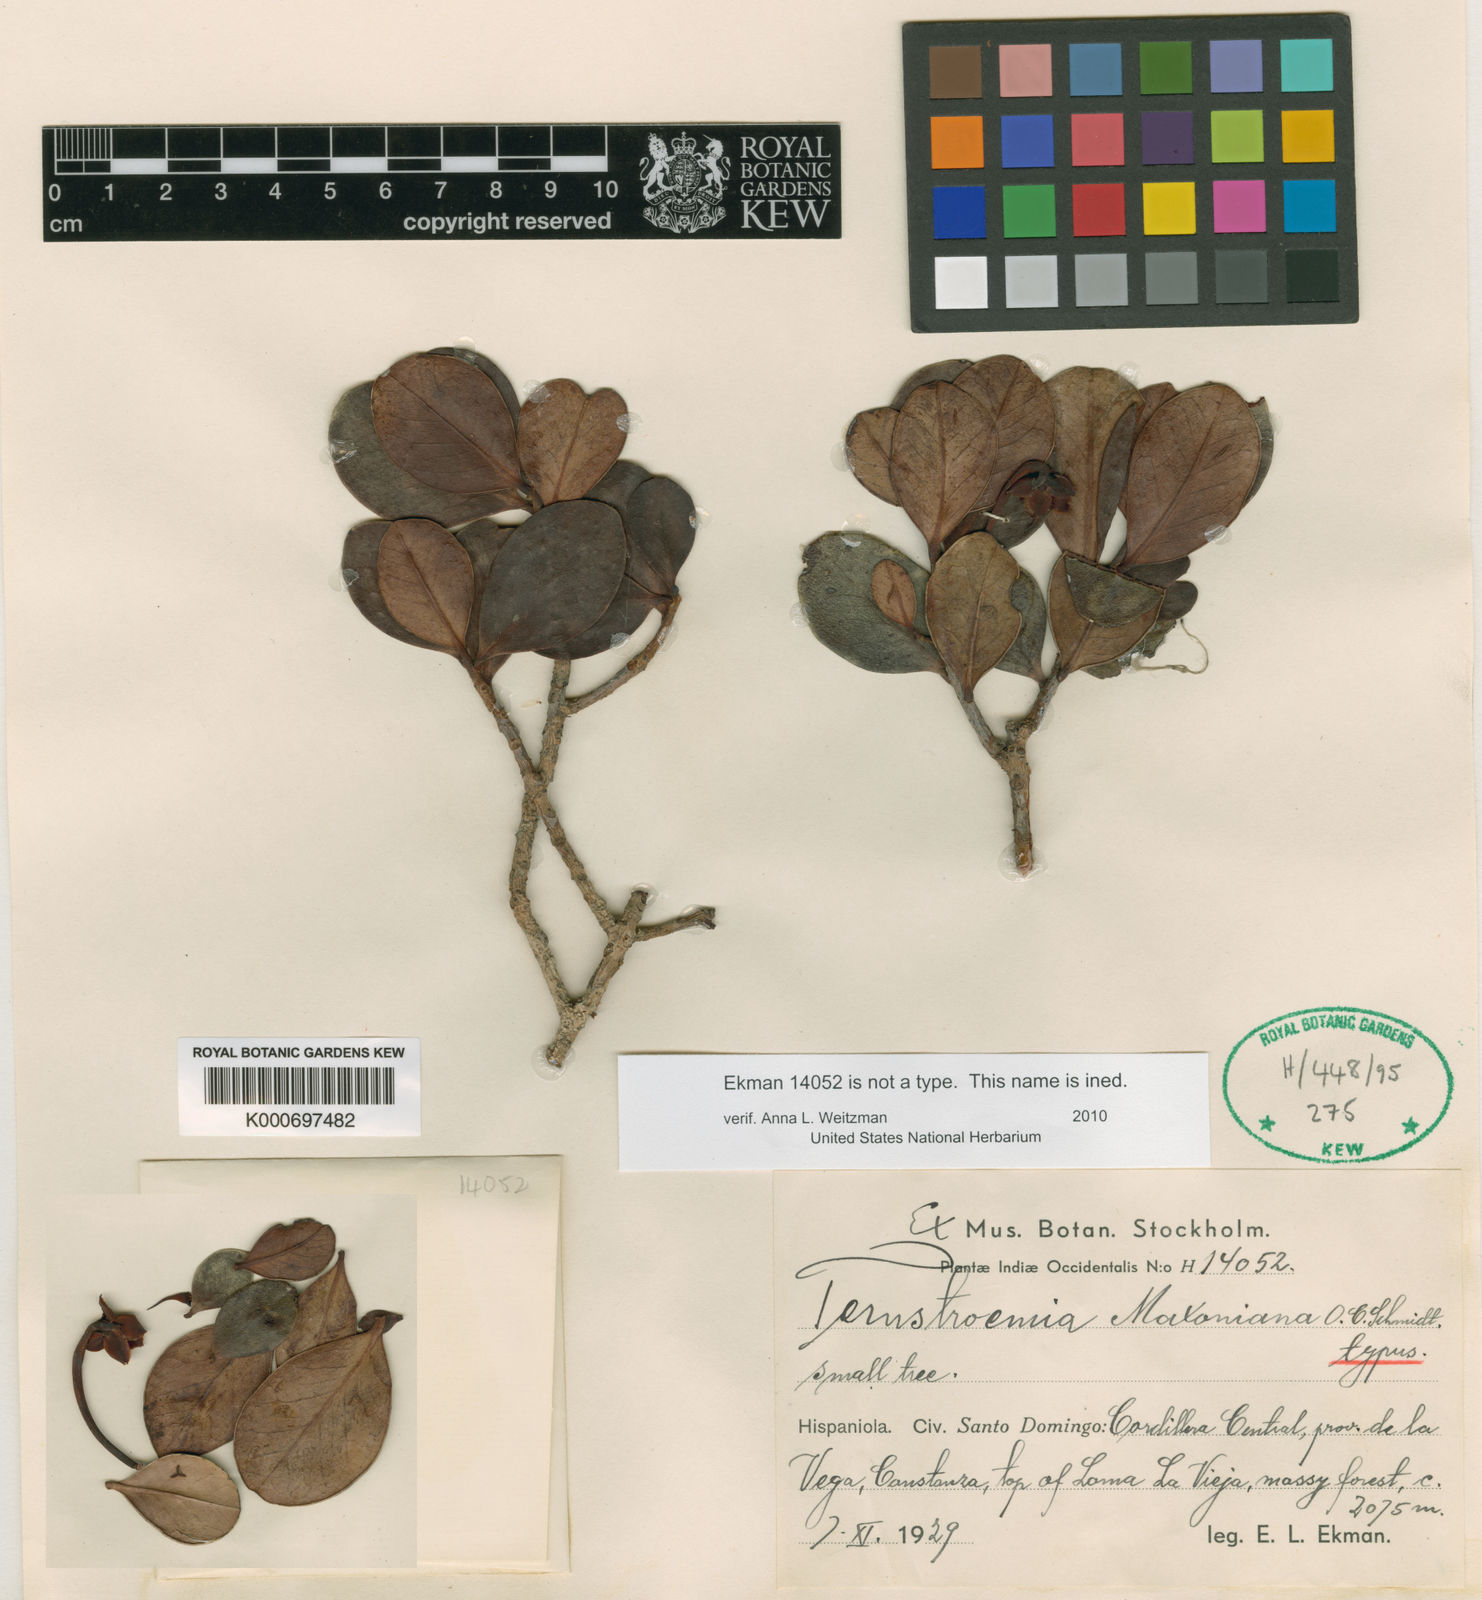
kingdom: Plantae
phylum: Tracheophyta
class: Magnoliopsida
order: Ericales
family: Pentaphylacaceae
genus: Ternstroemia
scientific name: Ternstroemia gracilifolia
